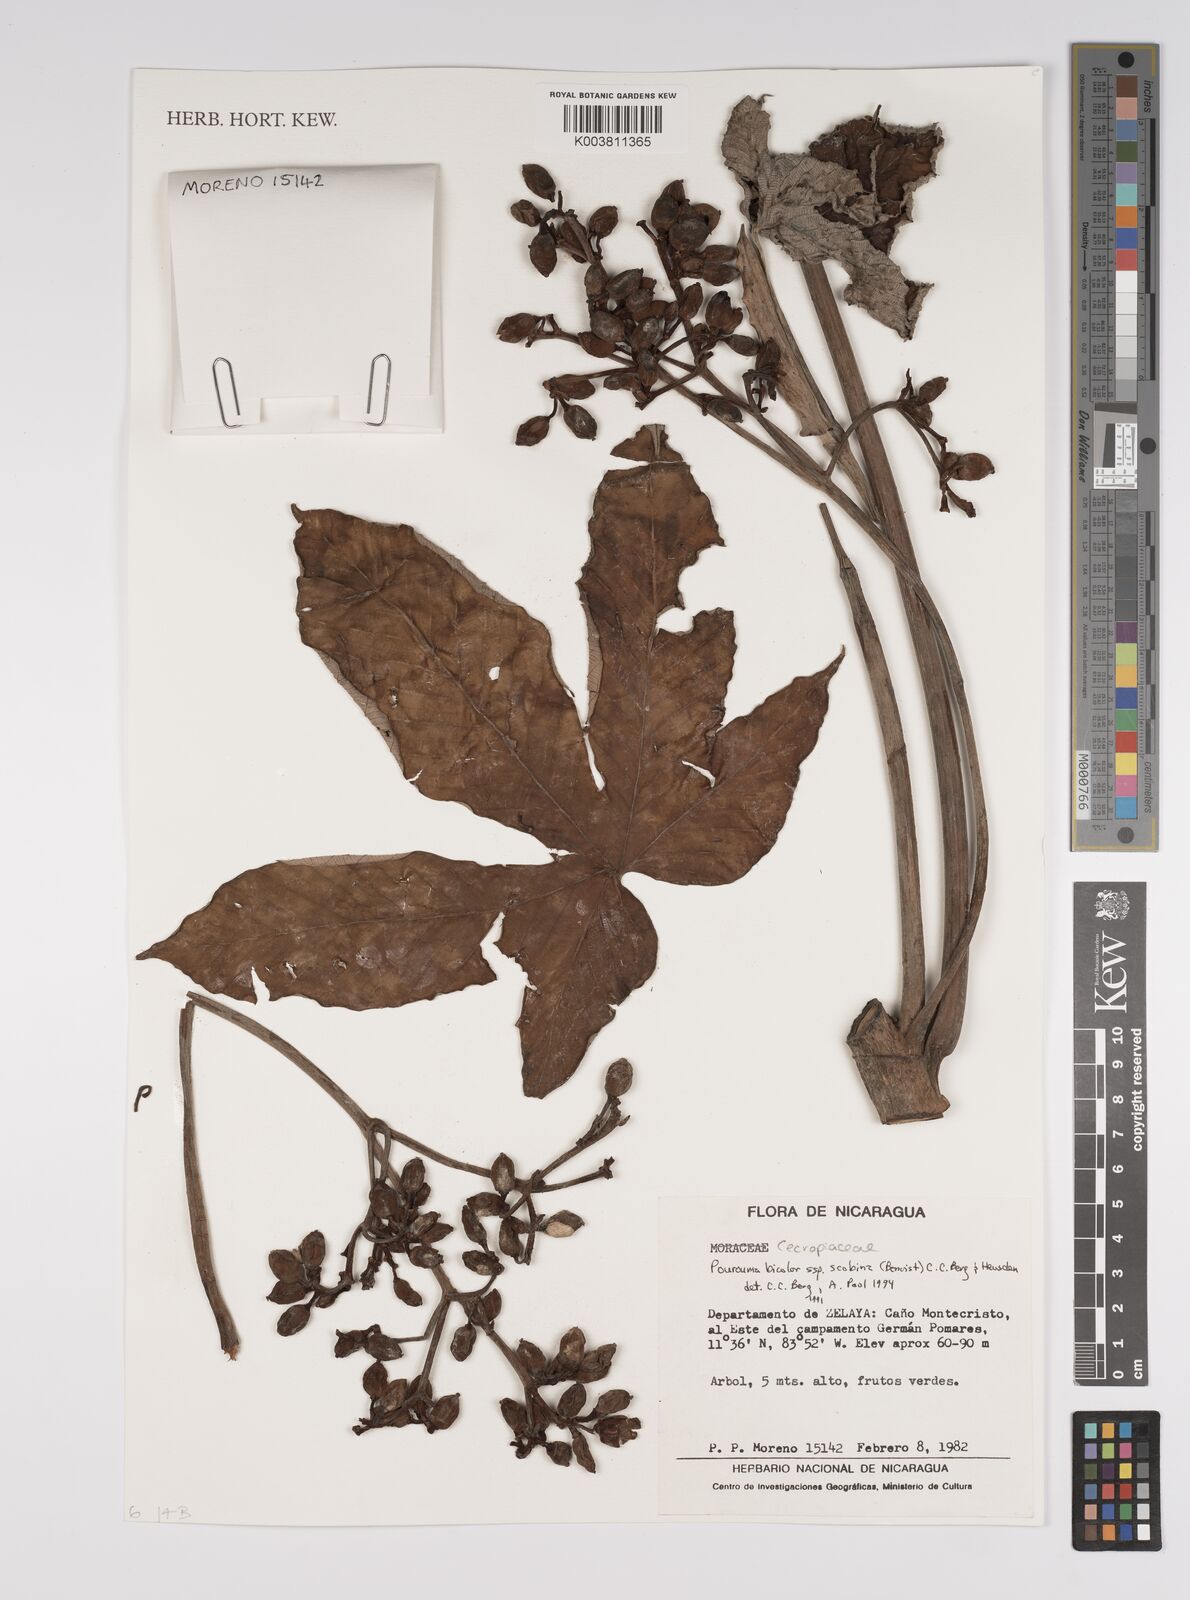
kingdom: Plantae
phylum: Tracheophyta
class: Magnoliopsida
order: Rosales
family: Urticaceae
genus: Pourouma
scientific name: Pourouma bicolor
